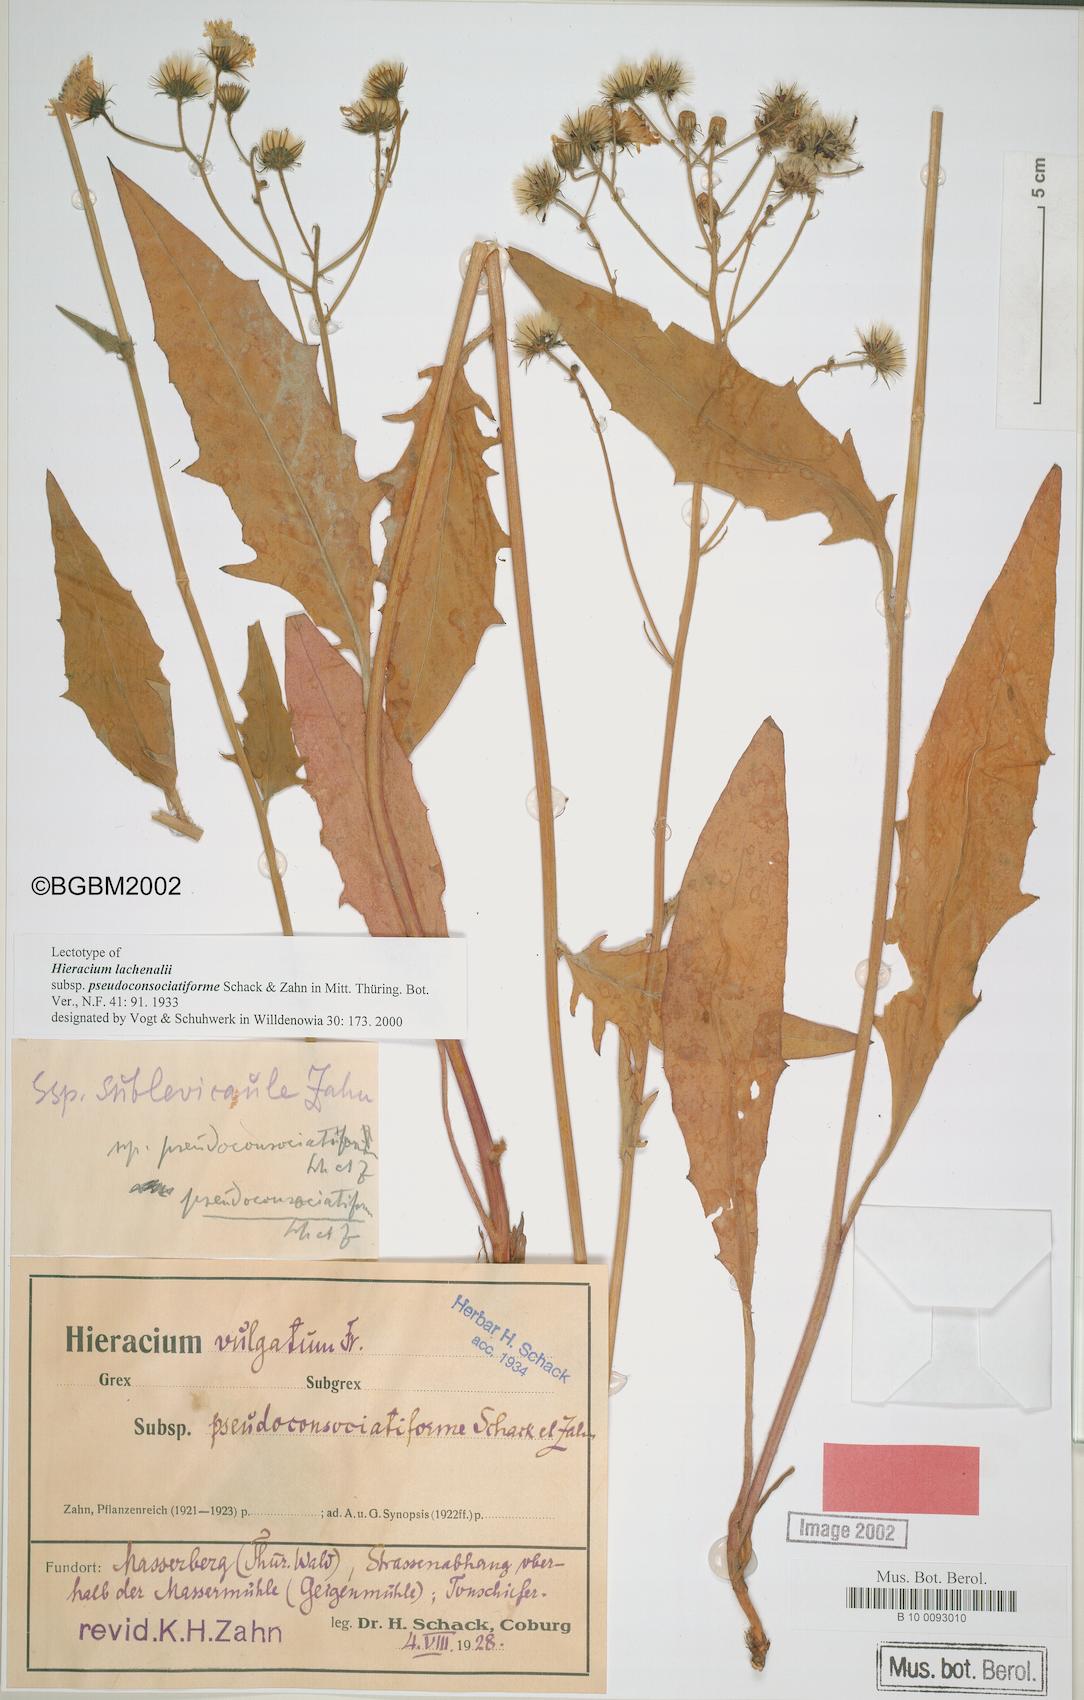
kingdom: Plantae
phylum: Tracheophyta
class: Magnoliopsida
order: Asterales
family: Asteraceae
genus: Hieracium
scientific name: Hieracium lachenalii
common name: Common hawkweed
